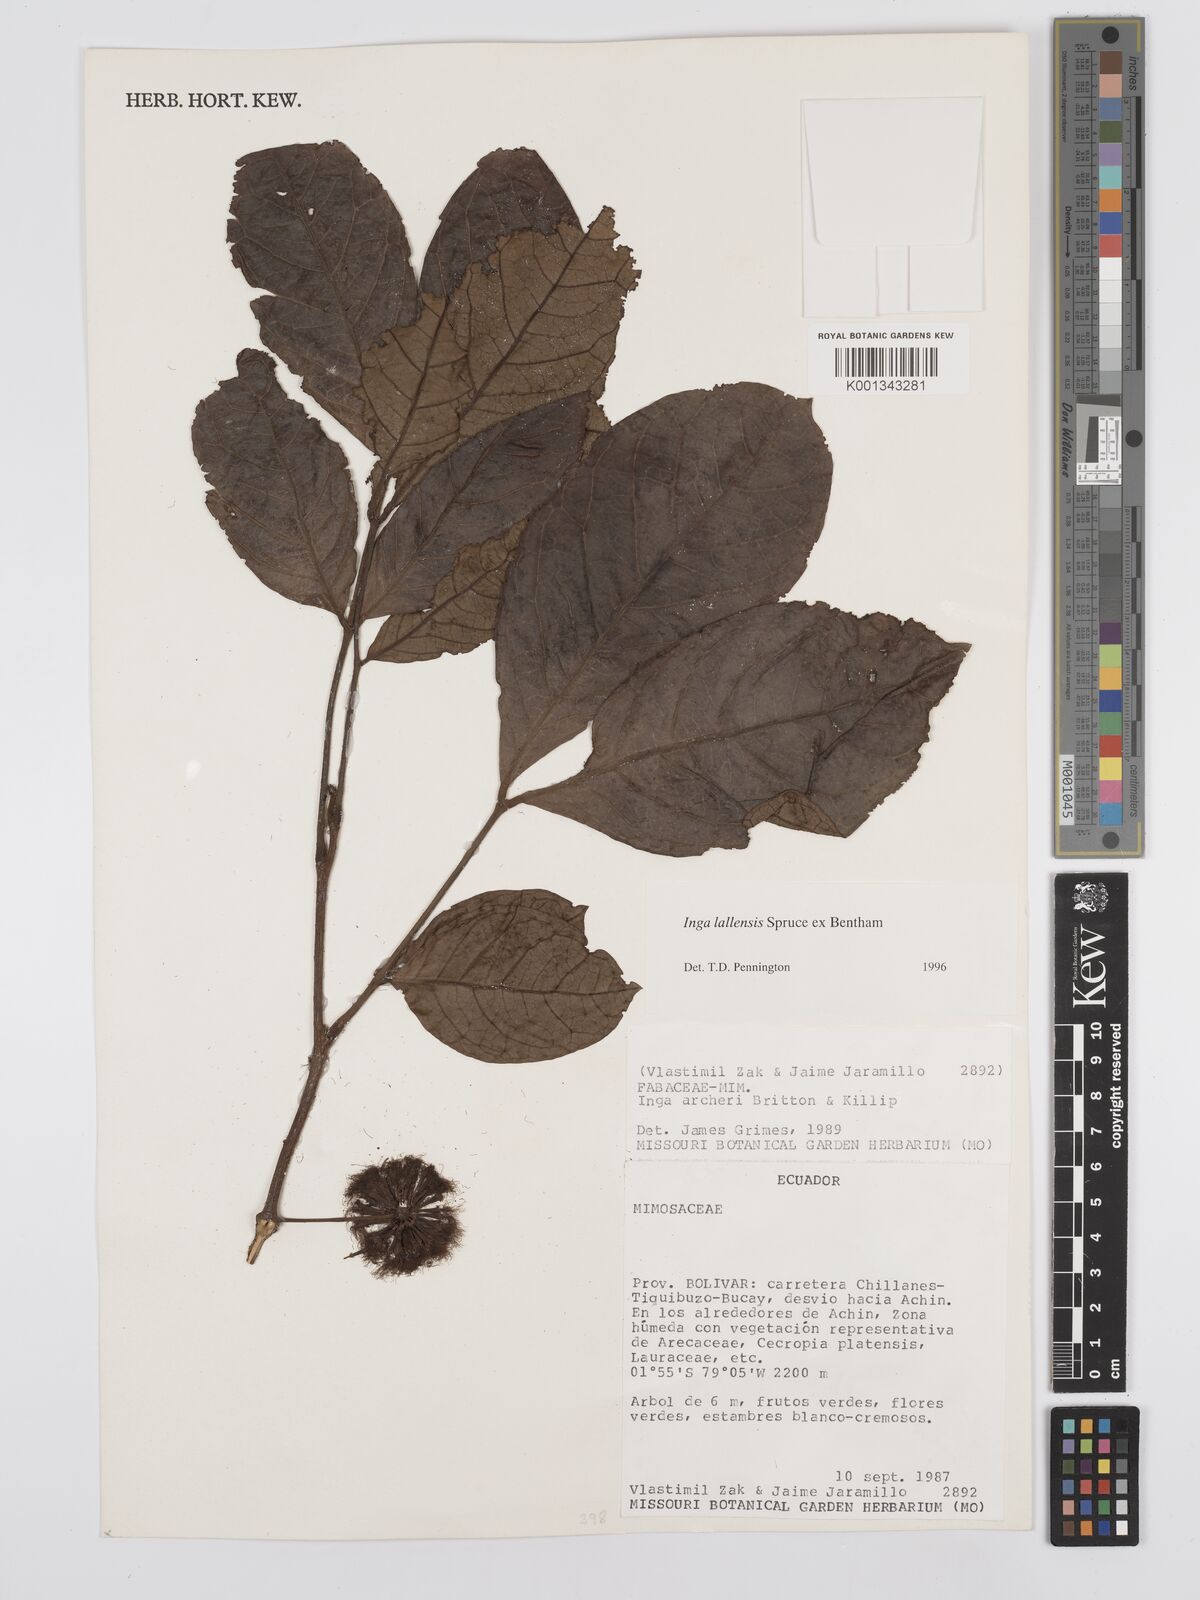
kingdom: Plantae
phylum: Tracheophyta
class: Magnoliopsida
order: Fabales
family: Fabaceae
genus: Inga
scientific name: Inga lallensis
